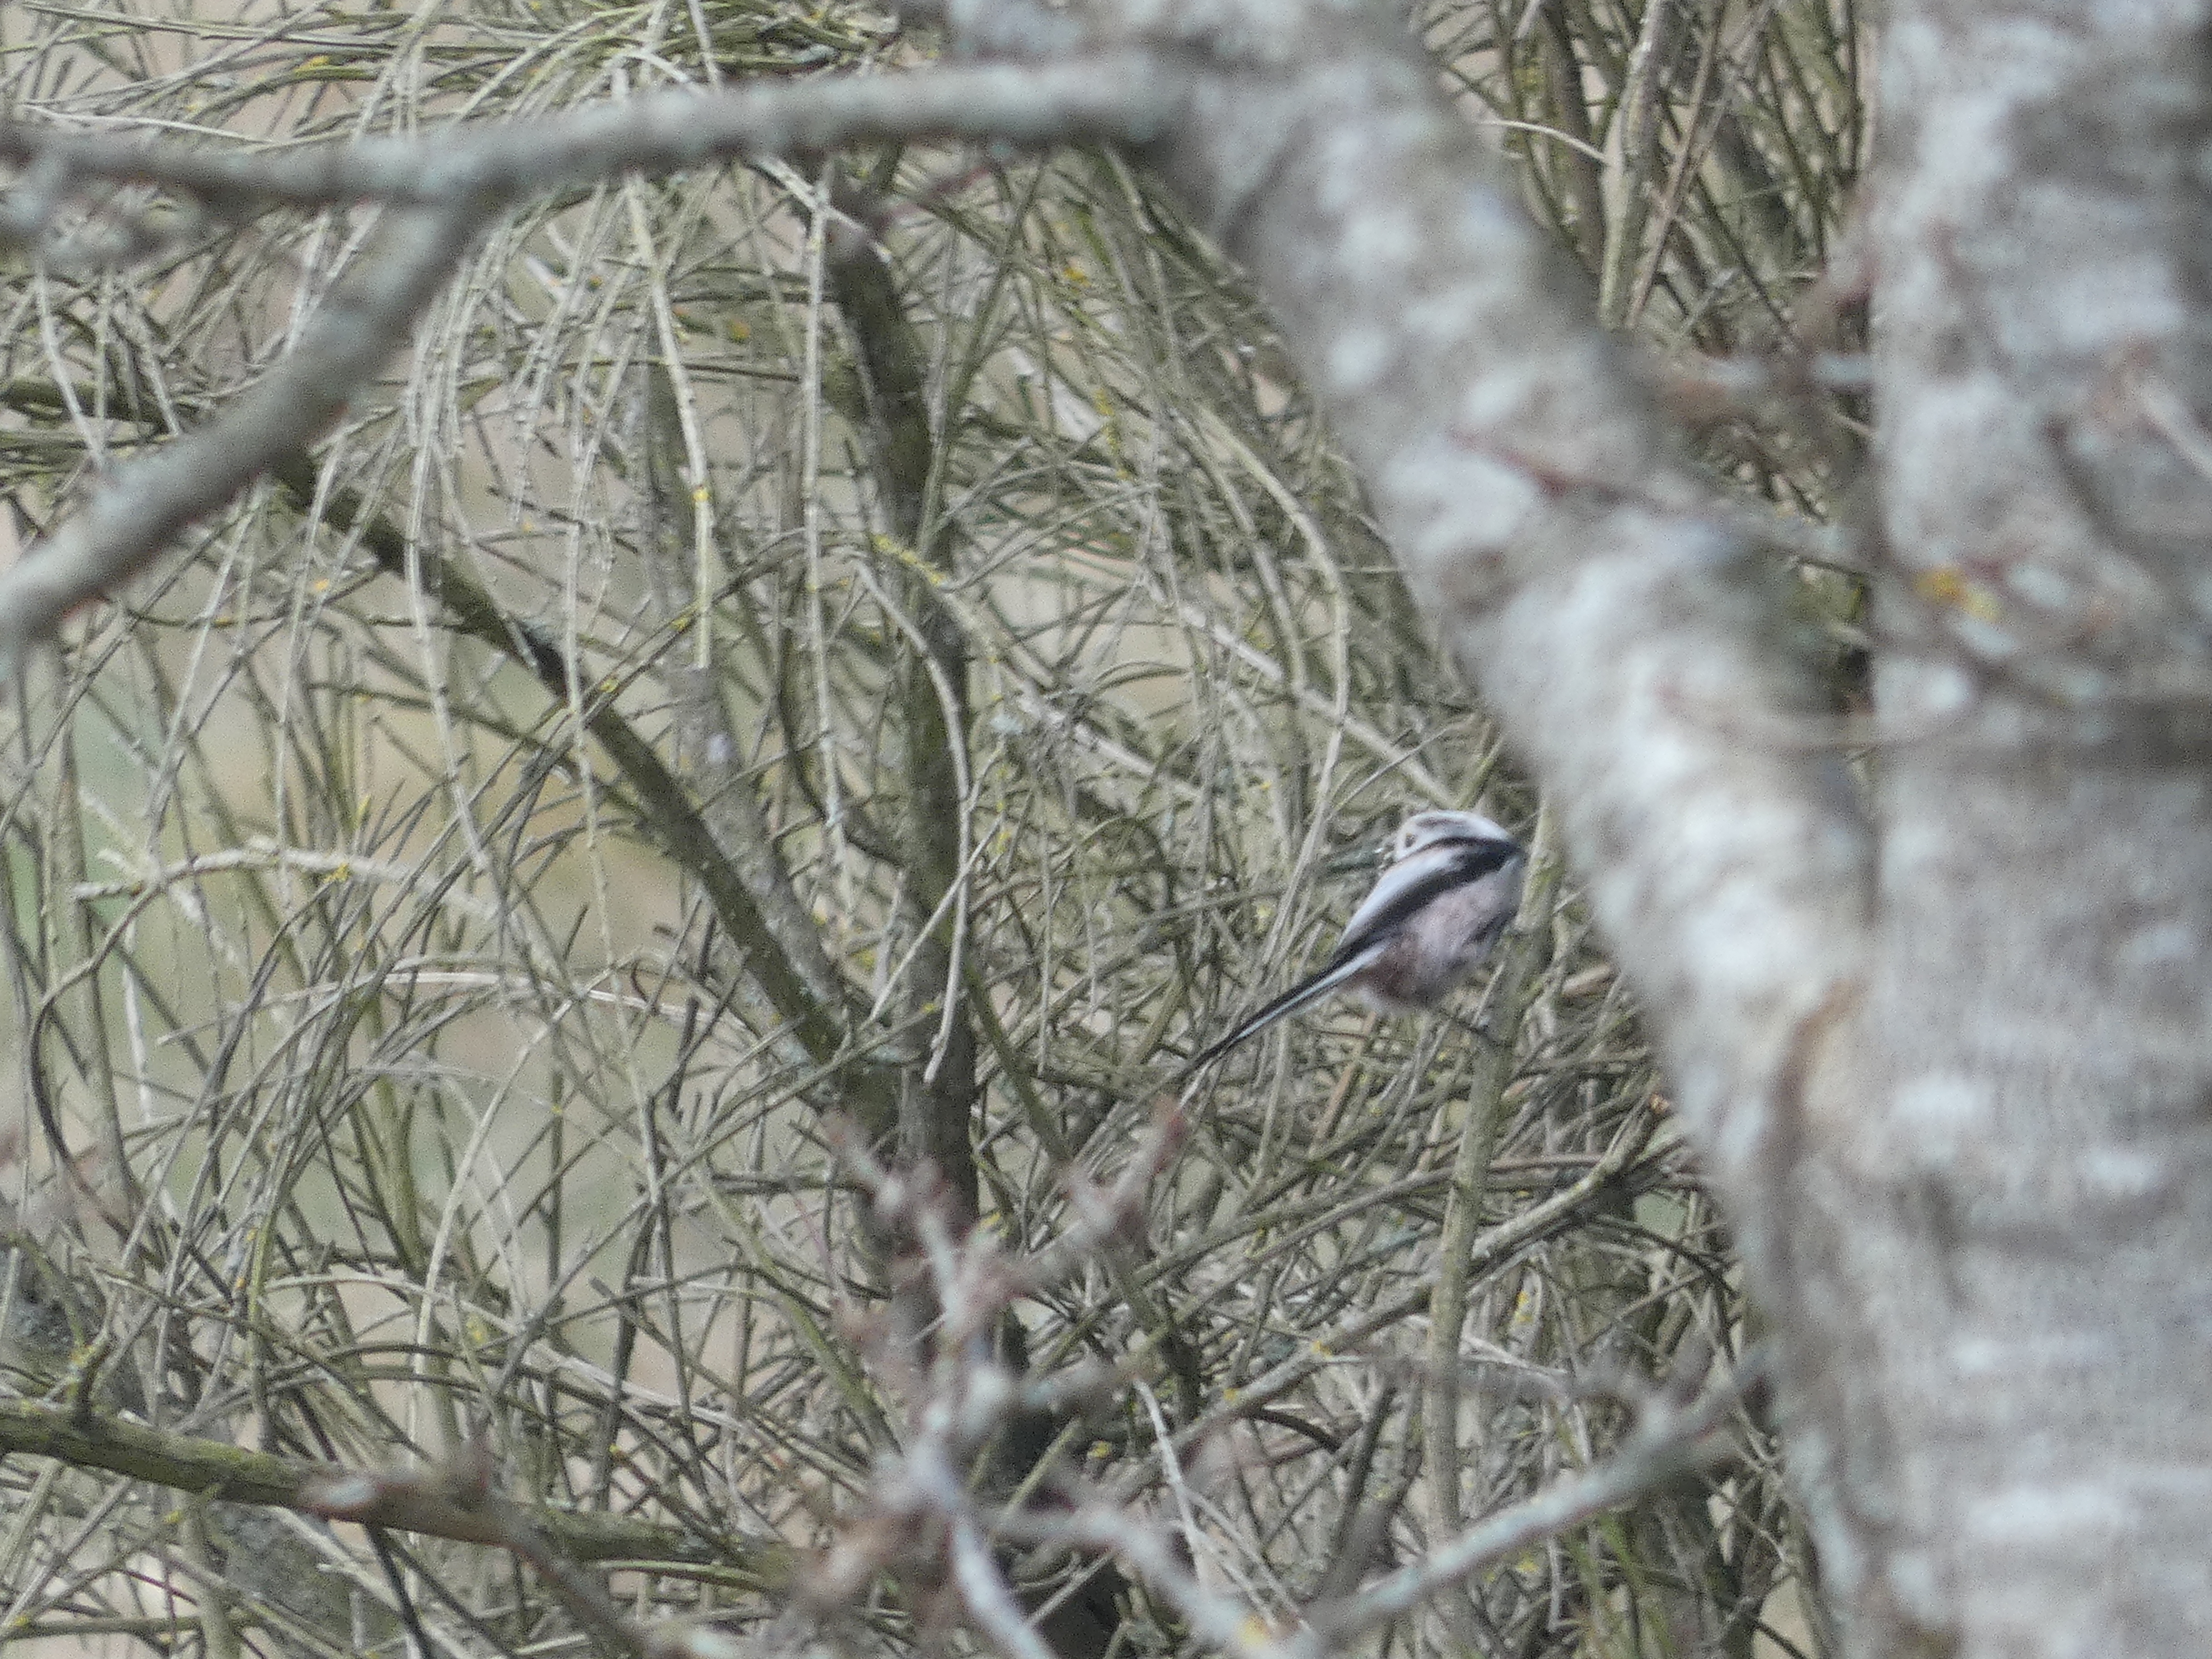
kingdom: Animalia
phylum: Chordata
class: Aves
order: Passeriformes
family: Aegithalidae
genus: Aegithalos
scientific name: Aegithalos caudatus
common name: Halemejse
